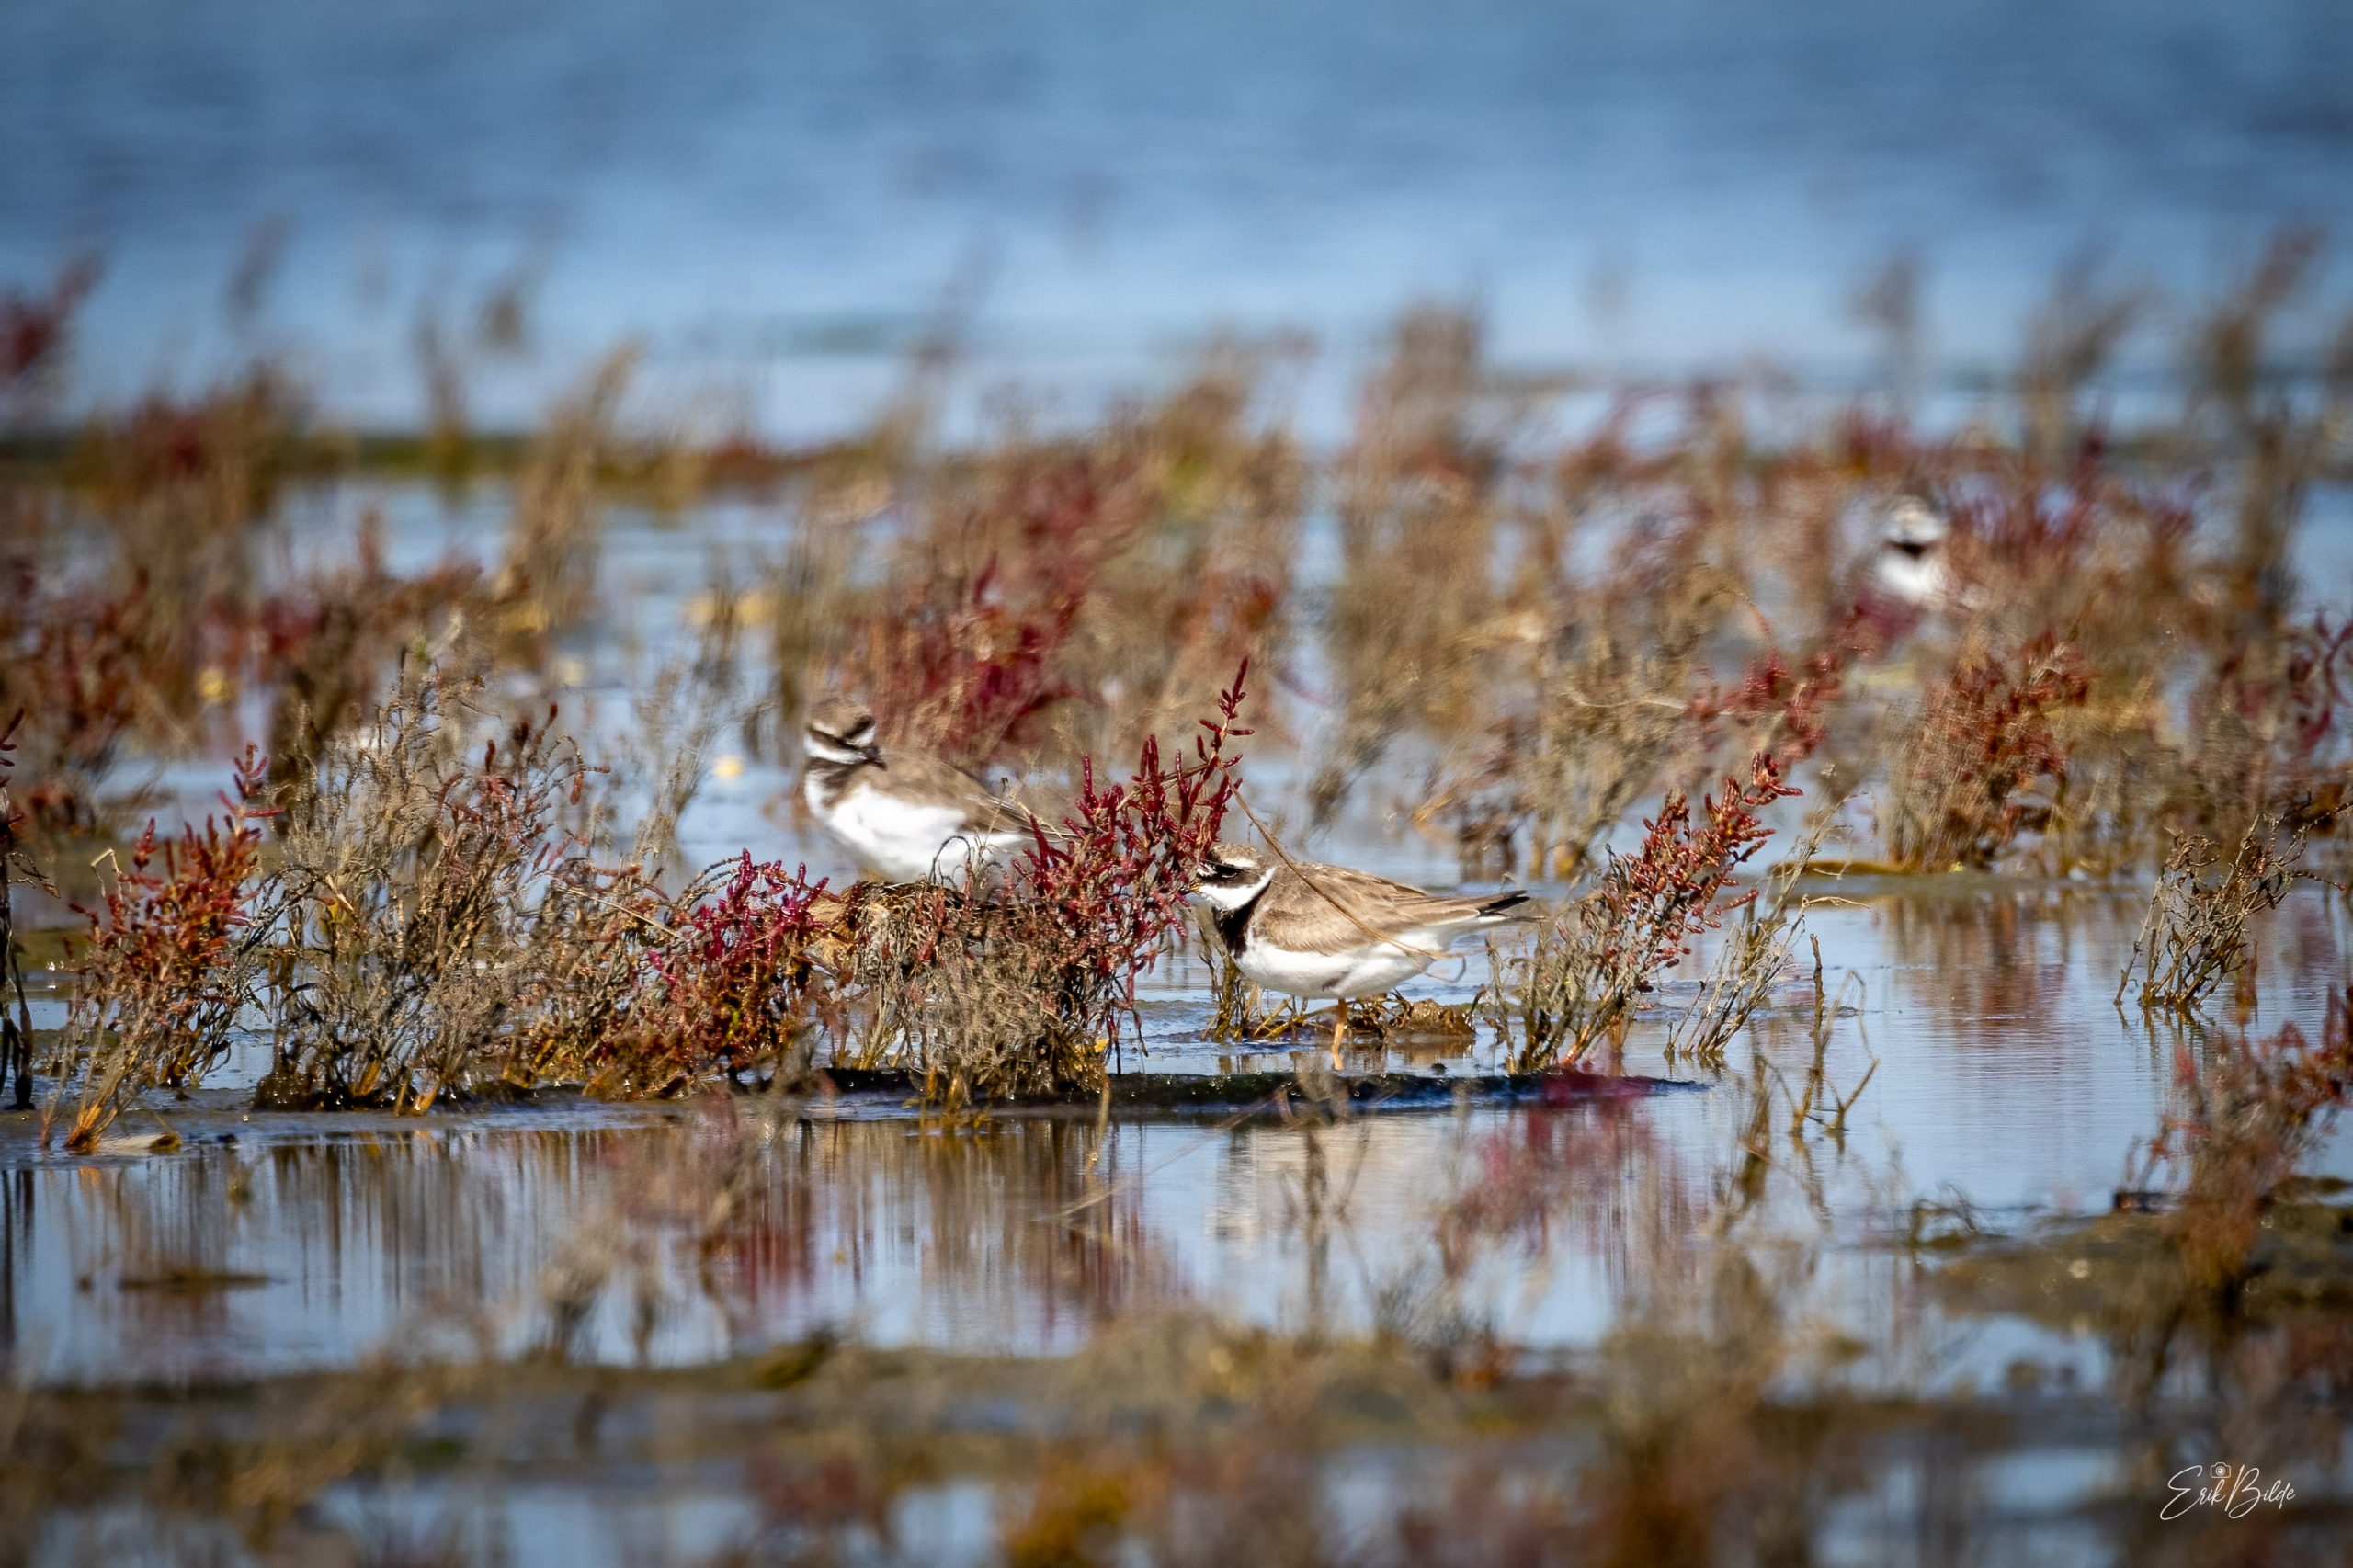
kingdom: Animalia
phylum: Chordata
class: Aves
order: Charadriiformes
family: Charadriidae
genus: Charadrius
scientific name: Charadrius hiaticula
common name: Stor præstekrave
